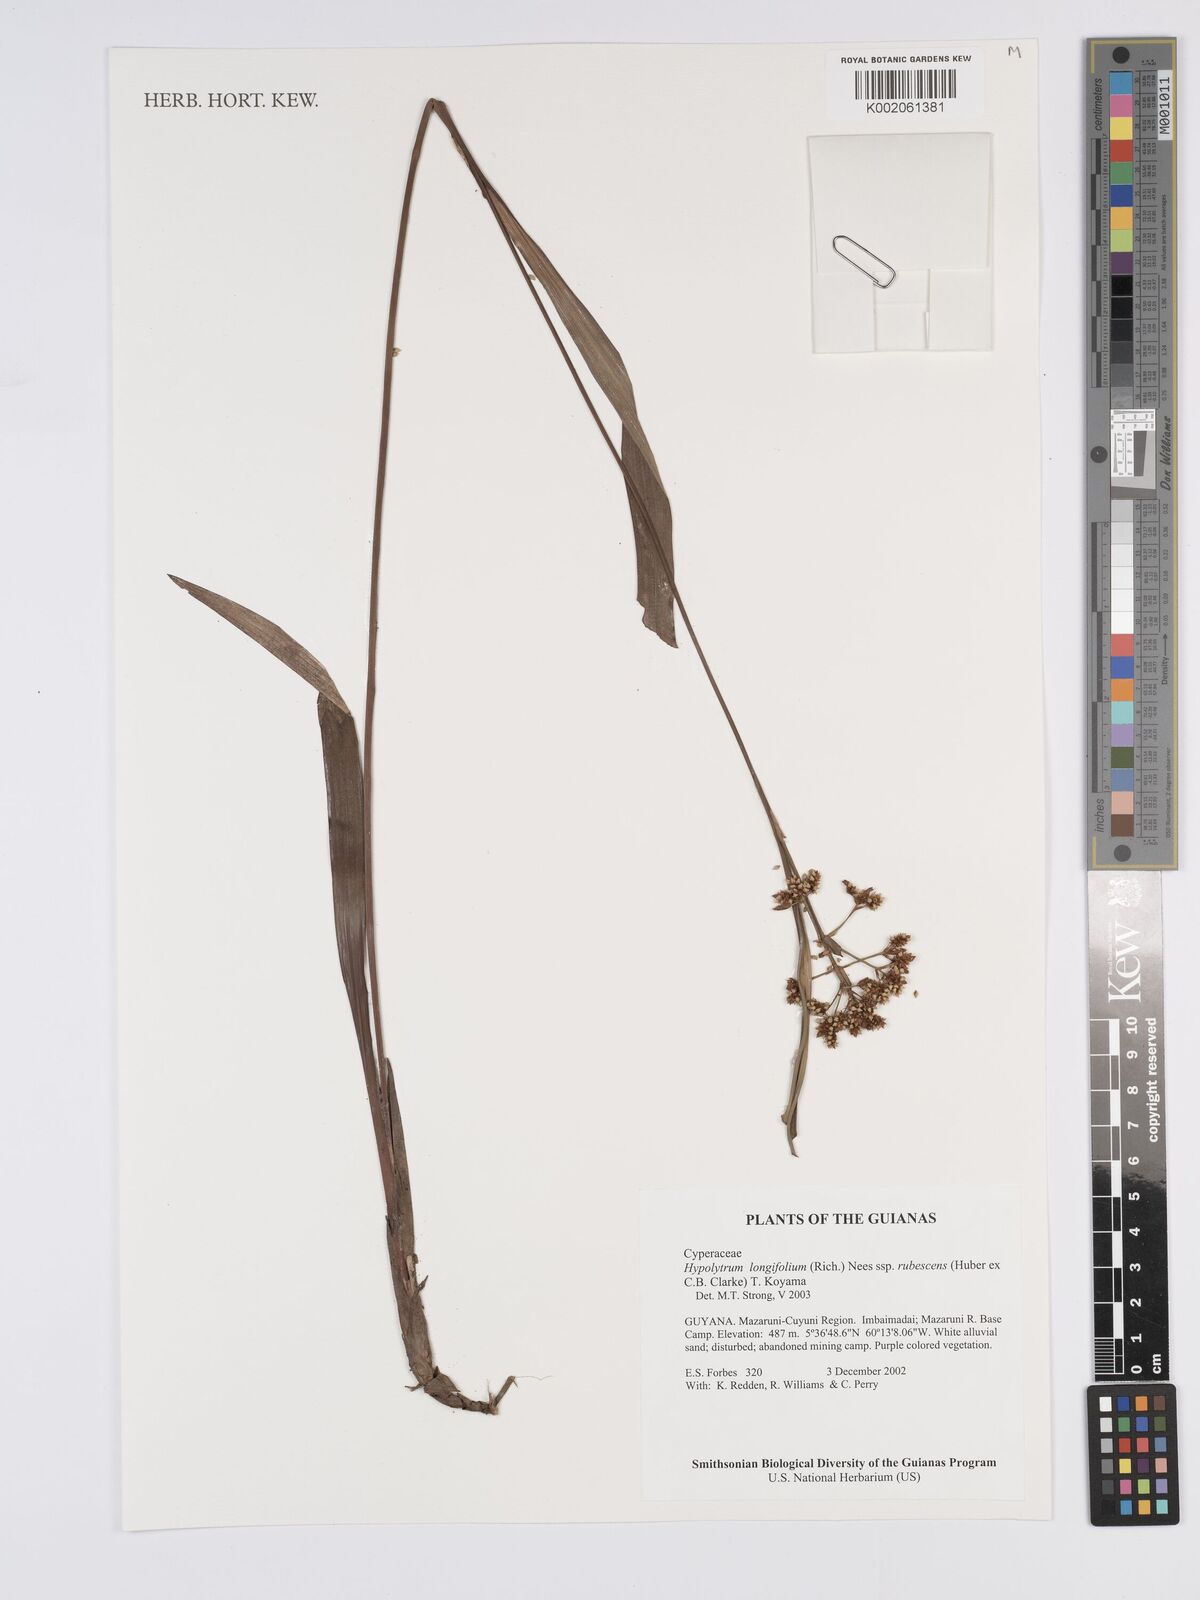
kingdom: Plantae
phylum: Tracheophyta
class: Liliopsida
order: Poales
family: Cyperaceae
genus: Hypolytrum
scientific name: Hypolytrum longifolium
